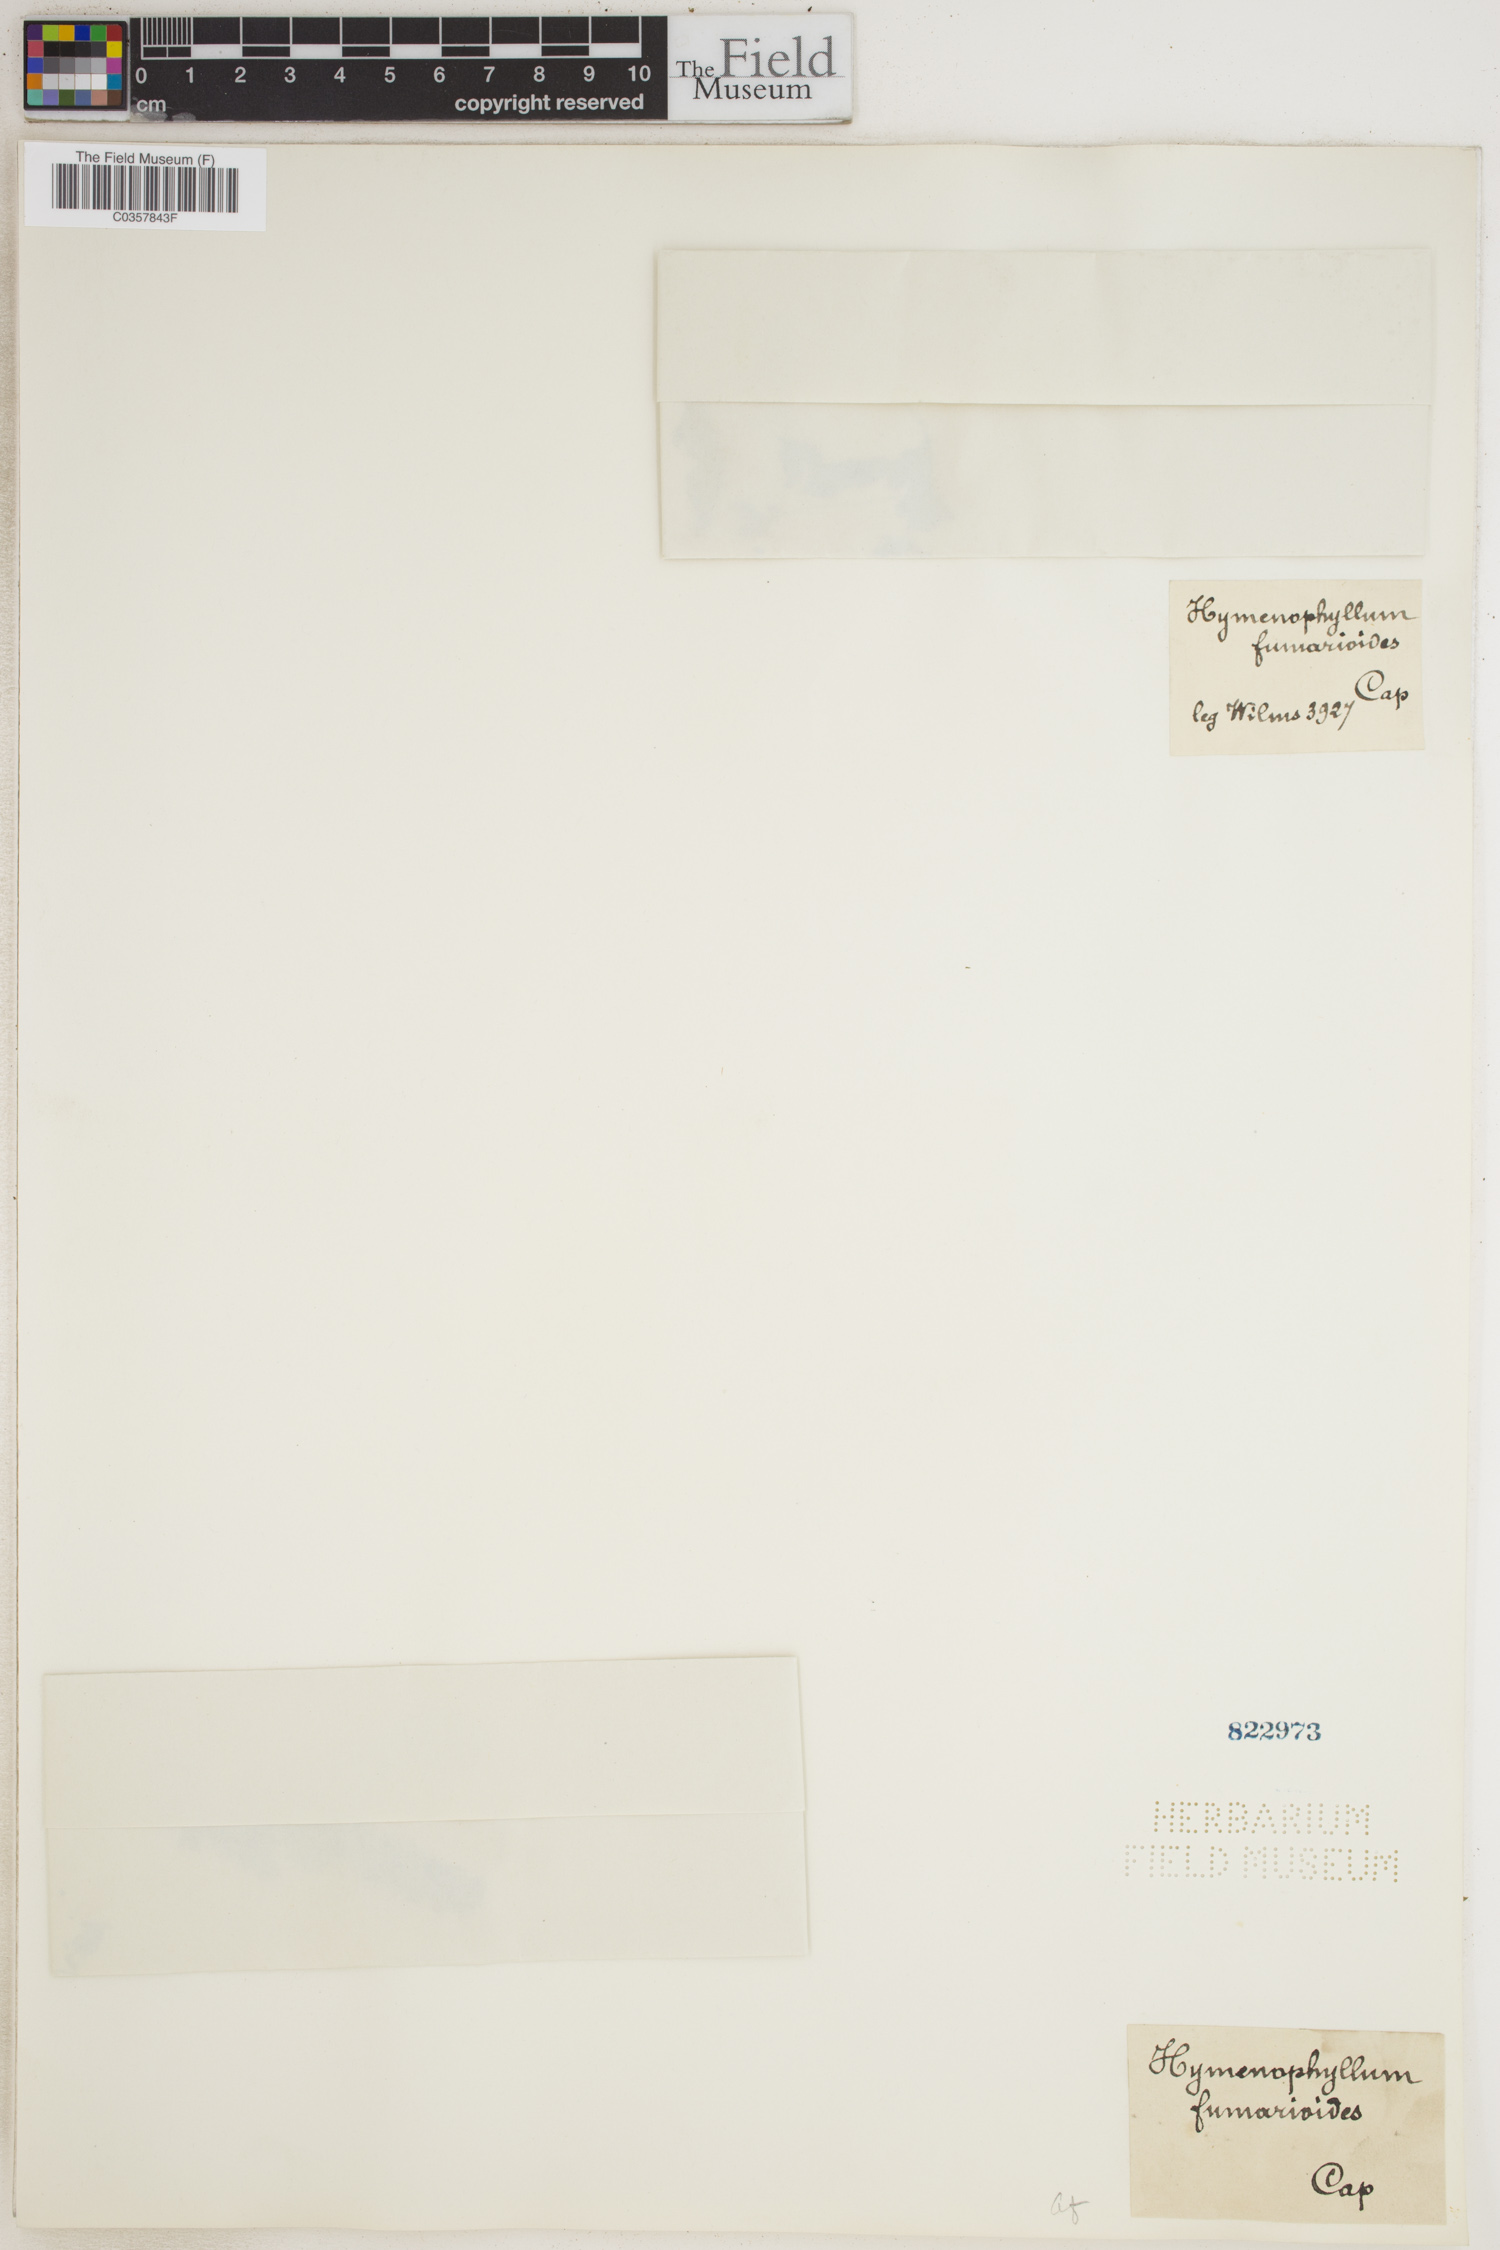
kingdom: Plantae
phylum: Tracheophyta
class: Polypodiopsida
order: Hymenophyllales
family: Hymenophyllaceae
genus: Hymenophyllum
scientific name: Hymenophyllum fumarioides
